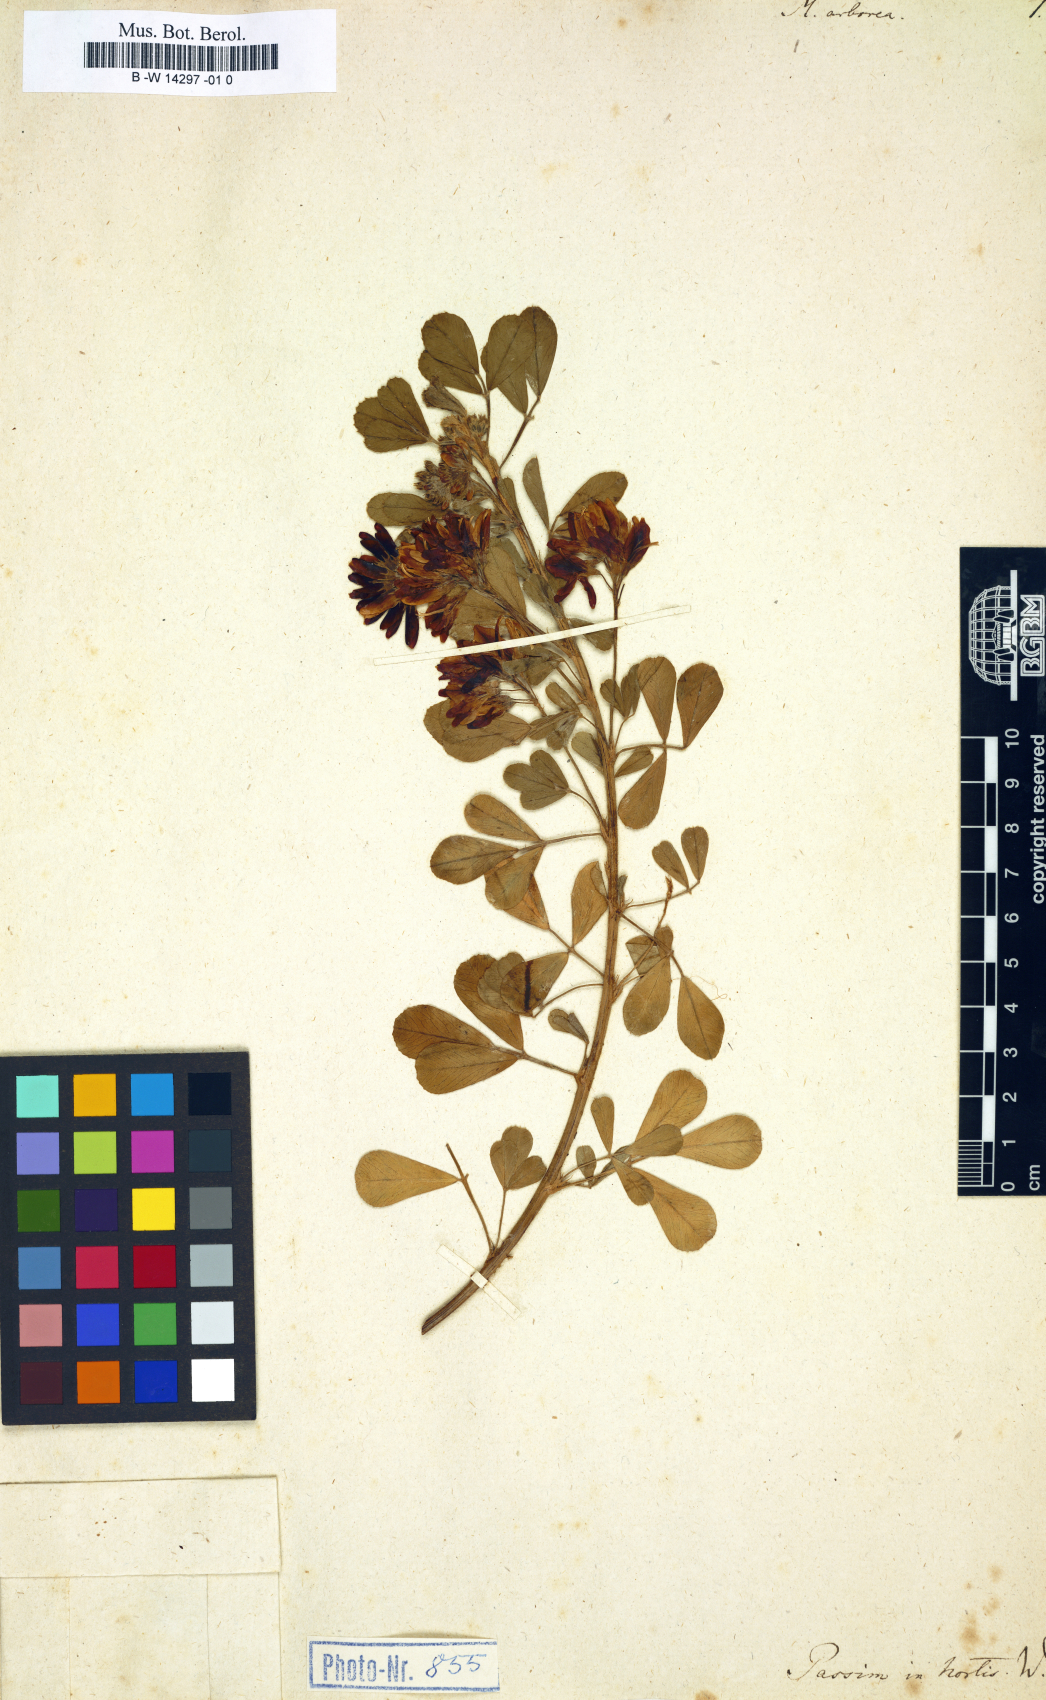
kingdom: Plantae
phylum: Tracheophyta
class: Magnoliopsida
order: Fabales
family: Fabaceae
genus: Medicago
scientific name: Medicago arborea
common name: Moon trefoil
